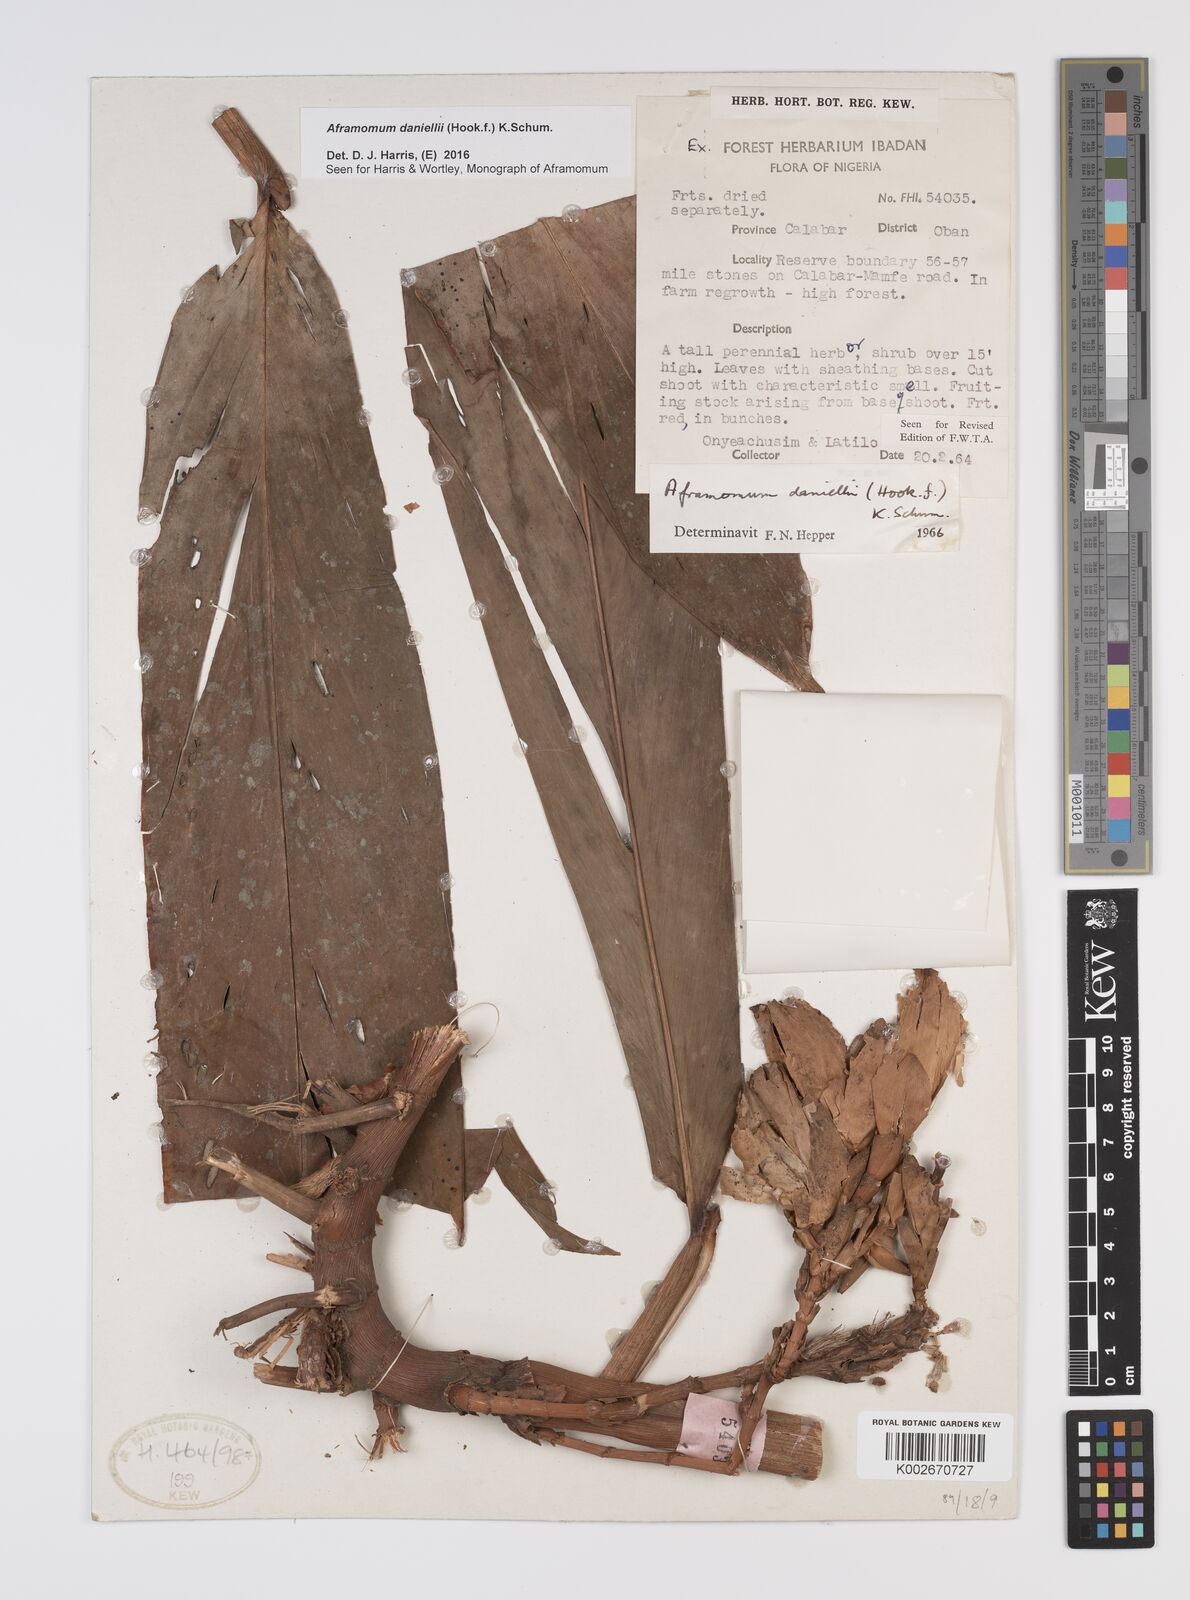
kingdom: Plantae
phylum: Tracheophyta
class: Liliopsida
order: Zingiberales
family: Zingiberaceae
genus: Aframomum
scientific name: Aframomum daniellii
